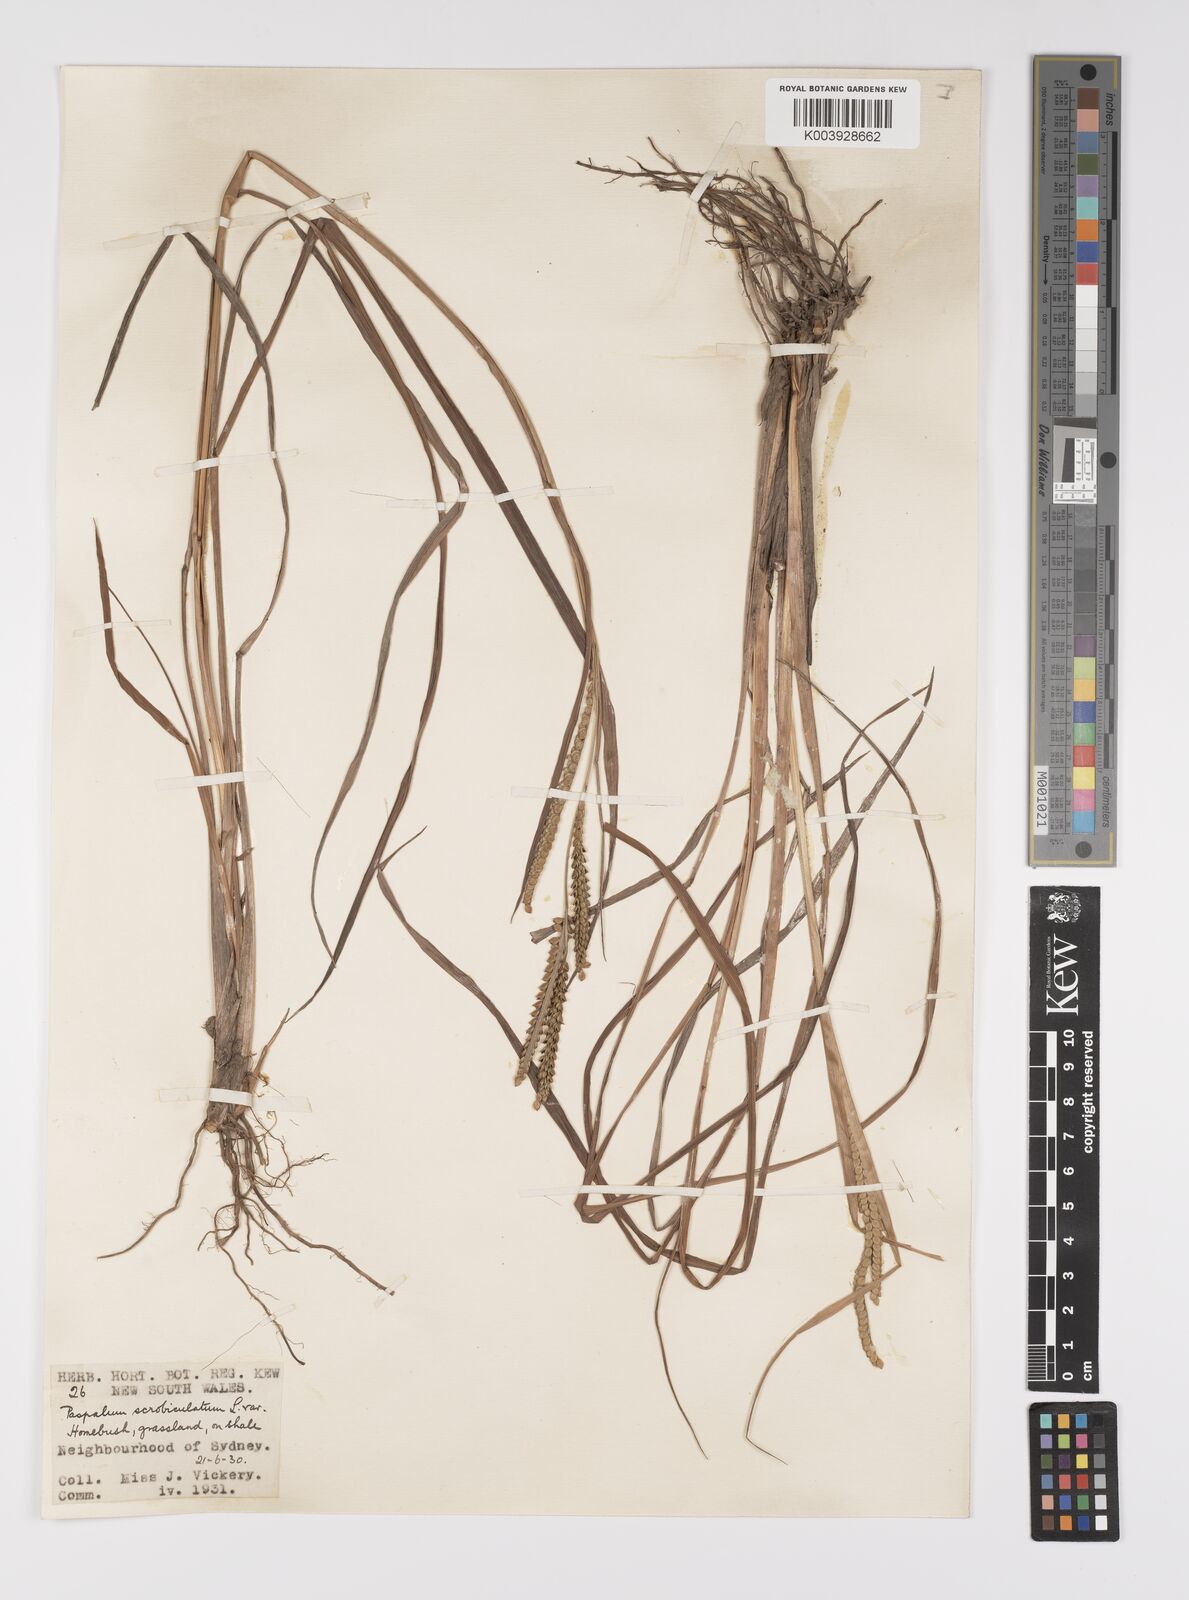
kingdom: Plantae
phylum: Tracheophyta
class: Liliopsida
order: Poales
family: Poaceae
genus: Paspalum
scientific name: Paspalum scrobiculatum
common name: Kodo millet
